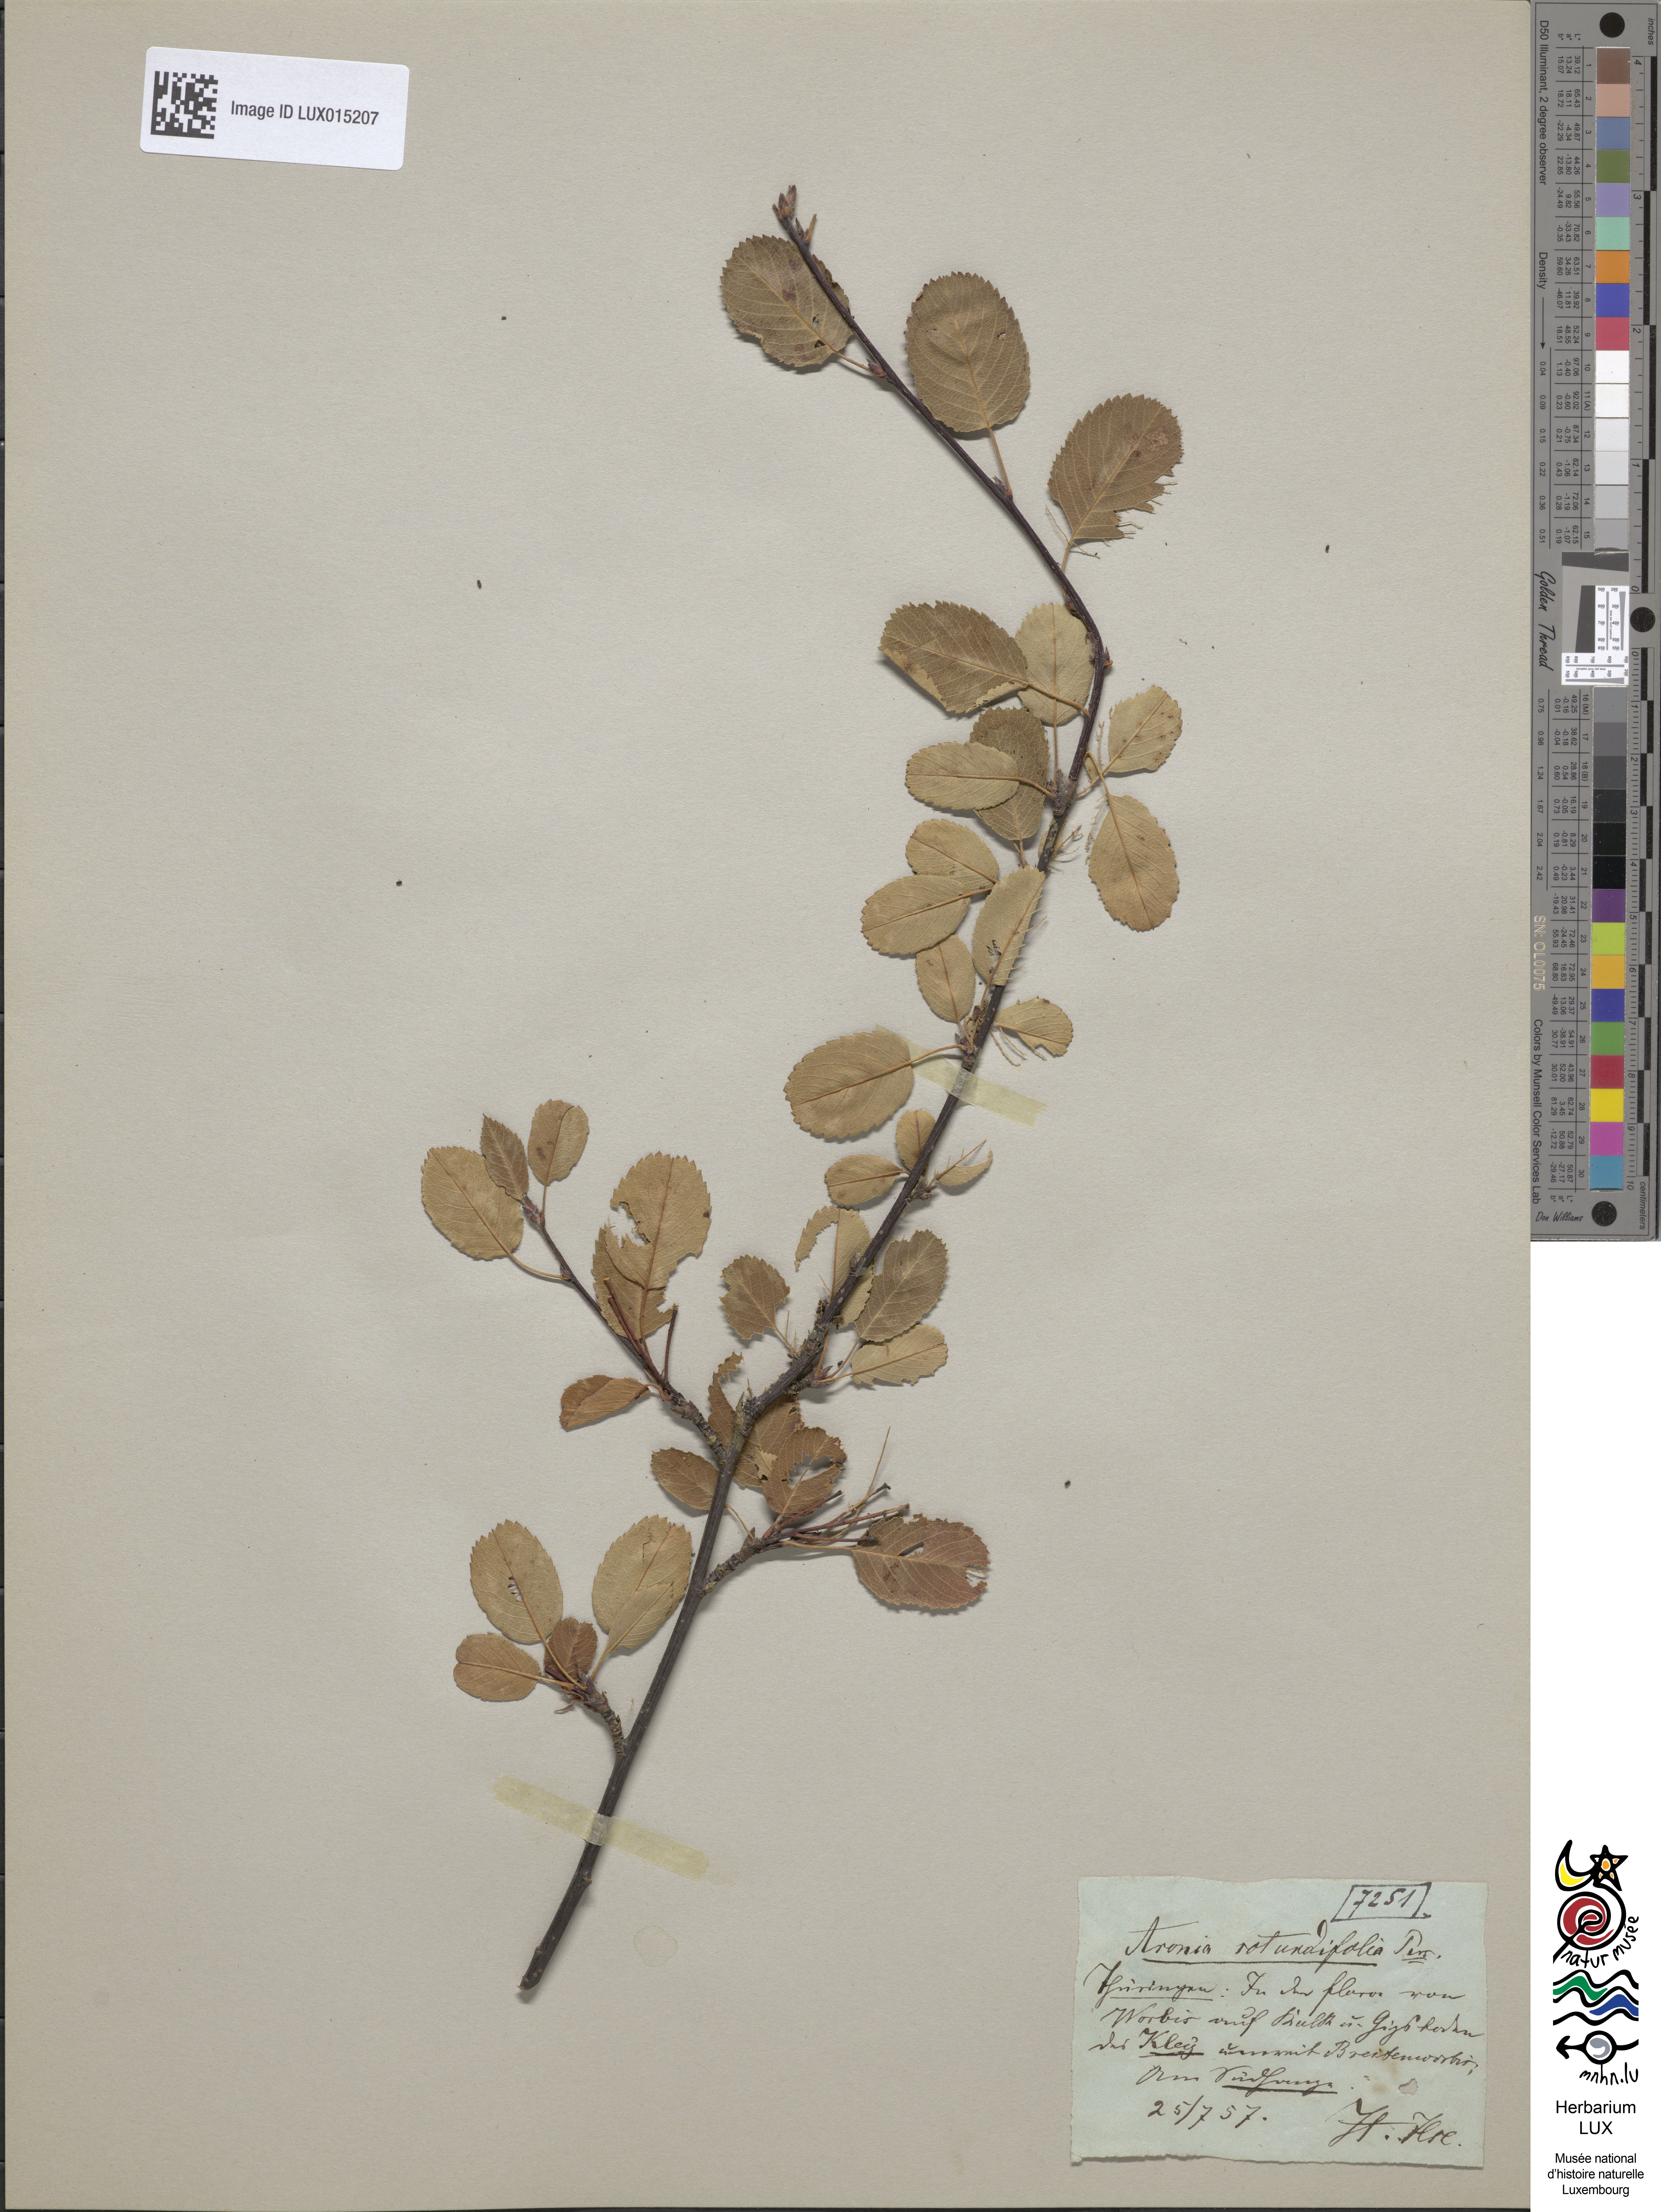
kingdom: Plantae
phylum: Tracheophyta
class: Magnoliopsida
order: Rosales
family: Rosaceae
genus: Amelanchier
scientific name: Amelanchier ovalis
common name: Serviceberry
